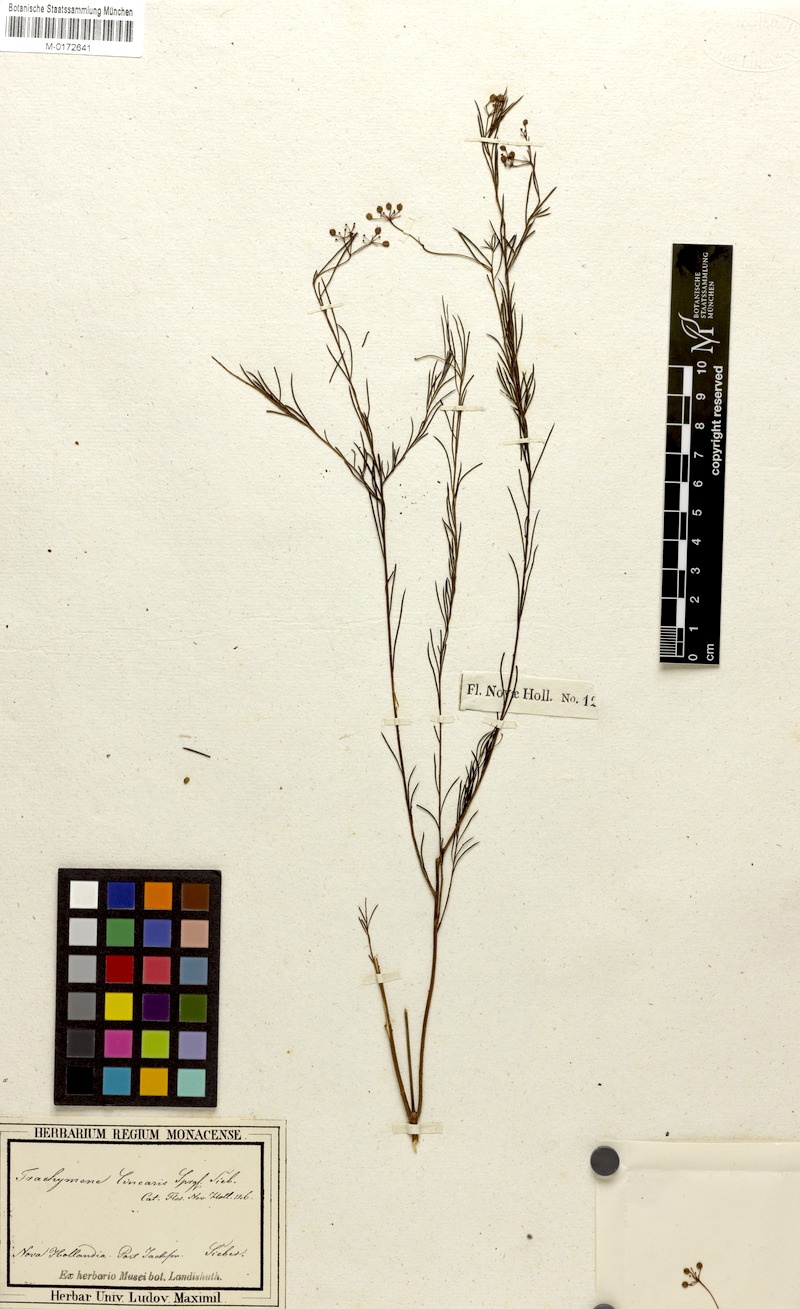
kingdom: Plantae
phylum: Tracheophyta
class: Magnoliopsida
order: Apiales
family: Apiaceae
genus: Platysace
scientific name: Platysace linearifolia
